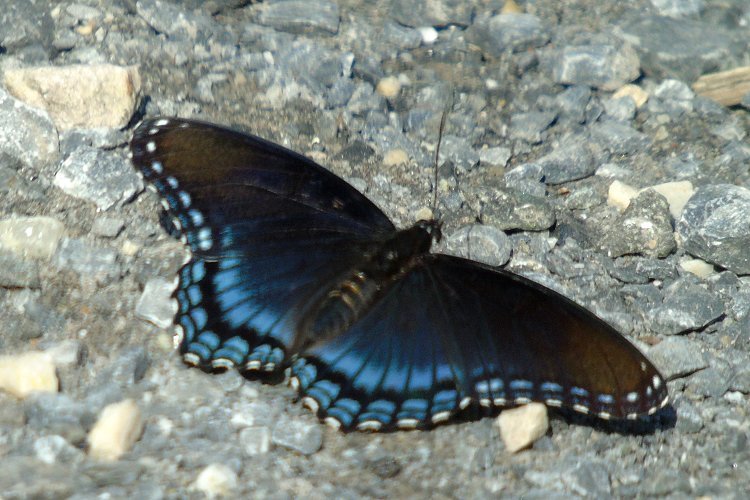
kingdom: Animalia
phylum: Arthropoda
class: Insecta
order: Lepidoptera
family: Nymphalidae
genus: Limenitis
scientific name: Limenitis astyanax
